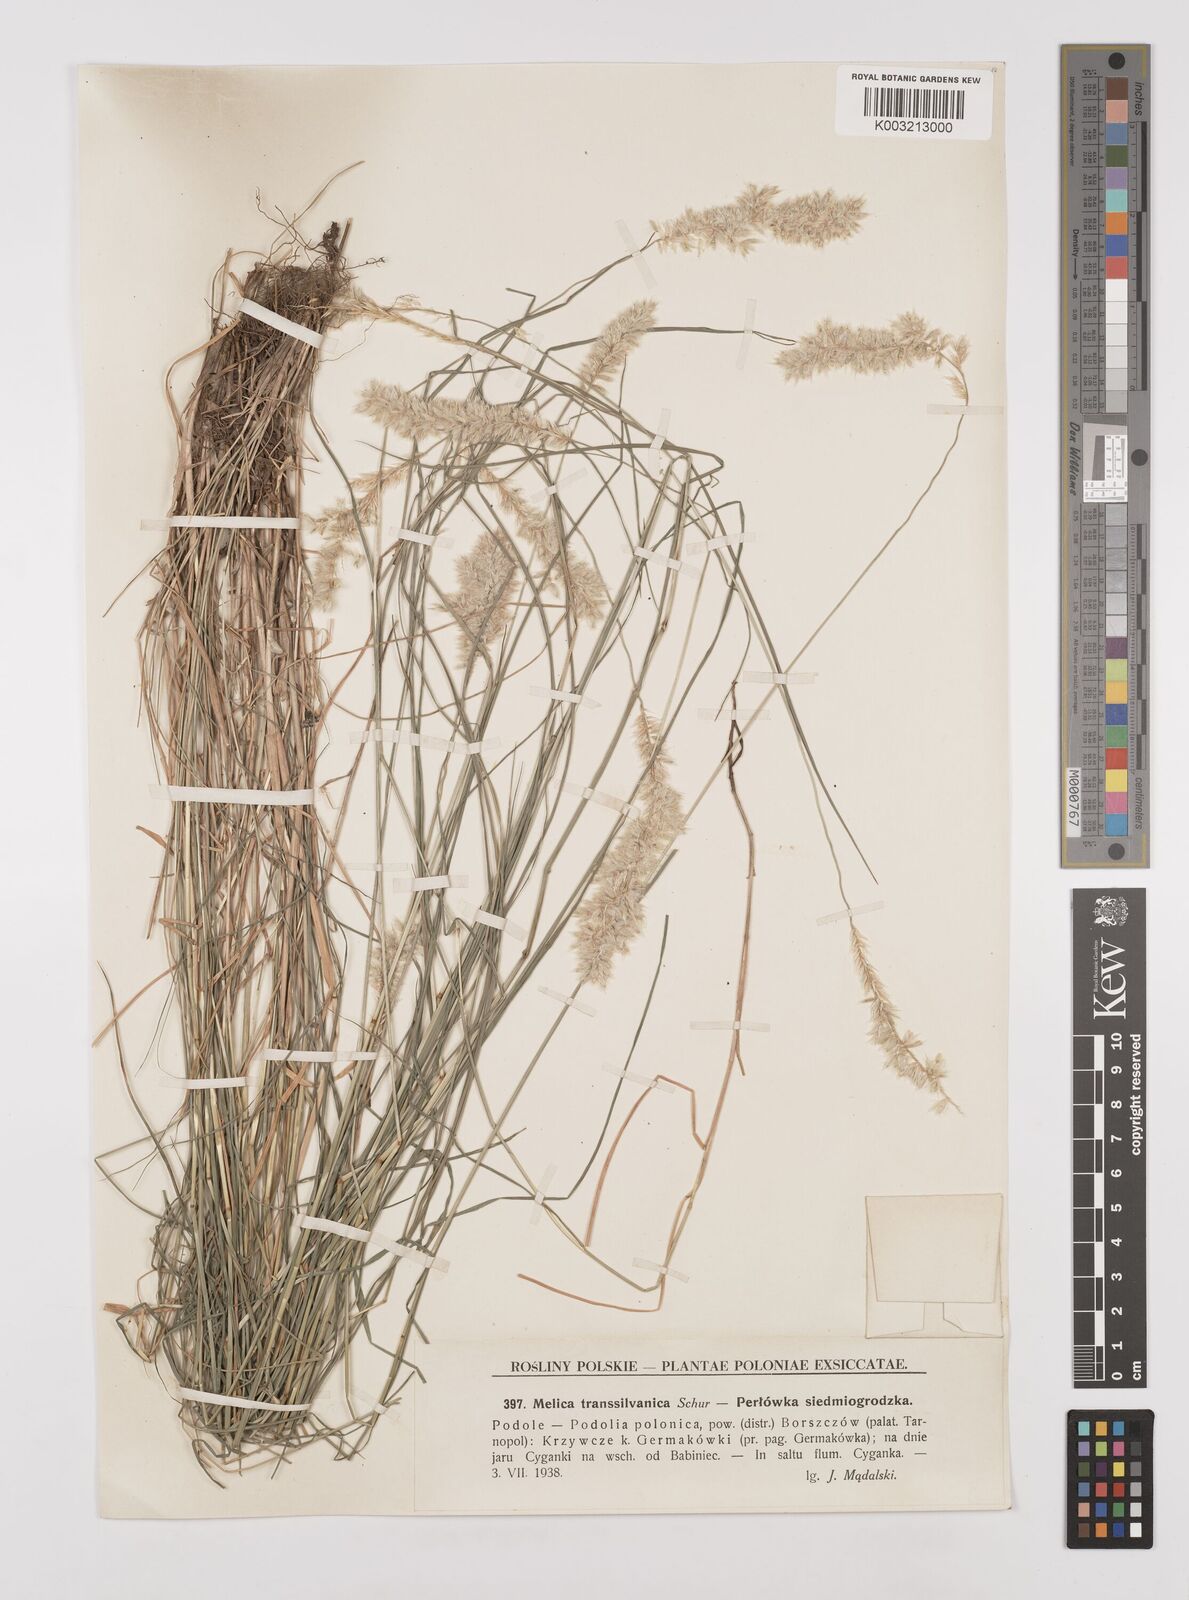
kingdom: Plantae
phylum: Tracheophyta
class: Liliopsida
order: Poales
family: Poaceae
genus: Melica
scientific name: Melica transsilvanica
